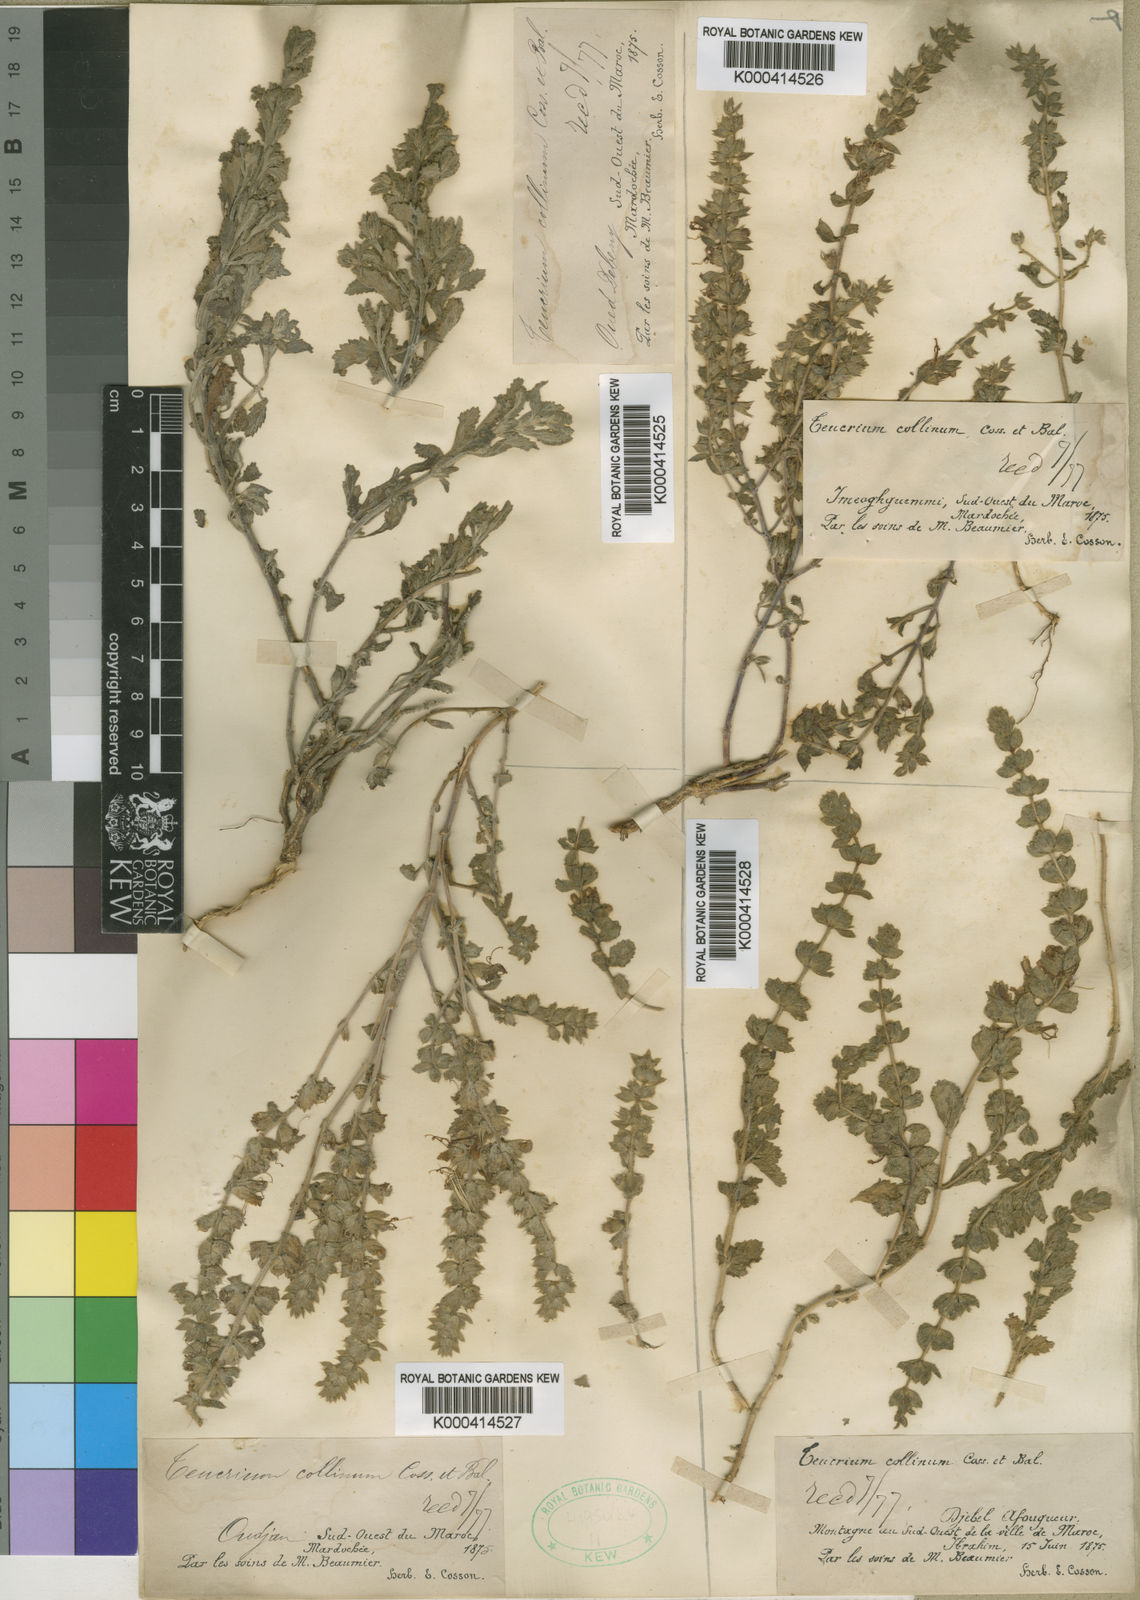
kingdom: Plantae
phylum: Tracheophyta
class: Magnoliopsida
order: Lamiales
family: Lamiaceae
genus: Teucrium
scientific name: Teucrium demnatense
